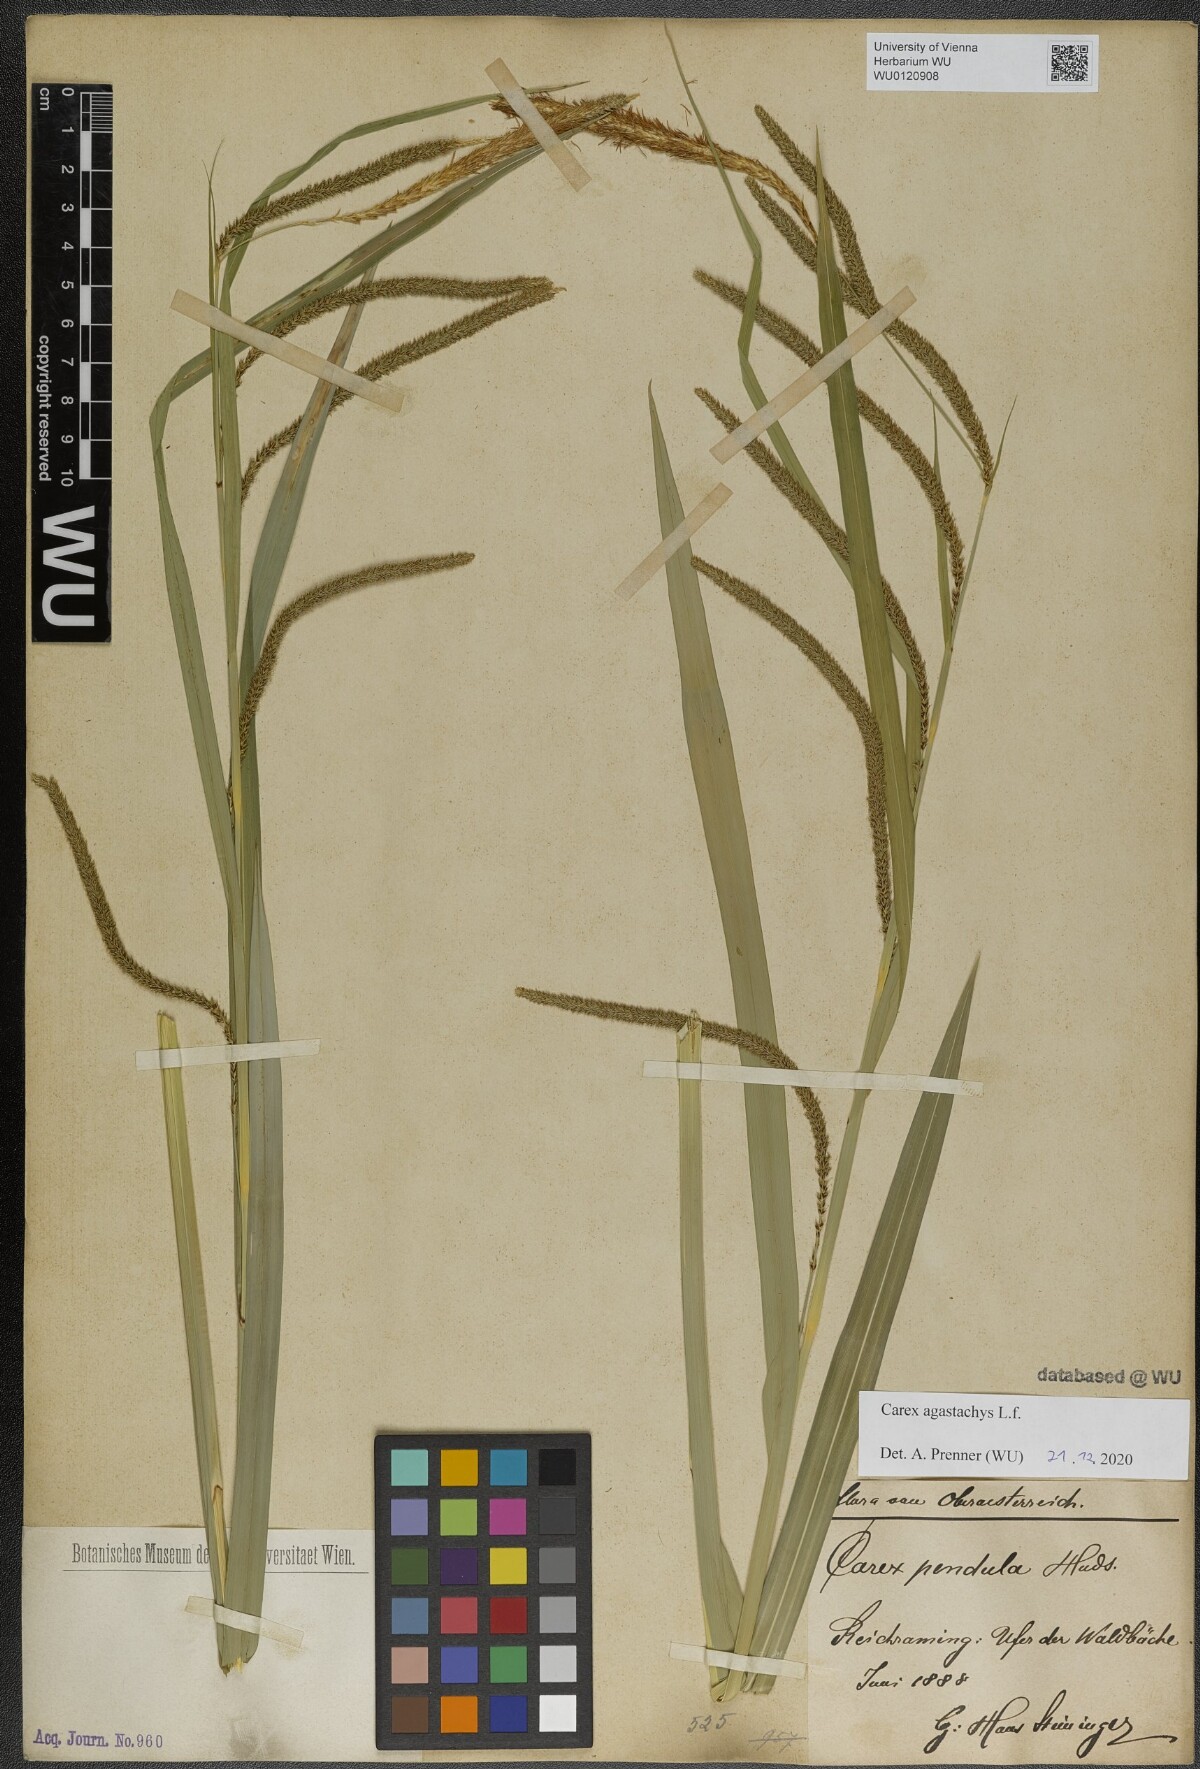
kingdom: Plantae
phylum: Tracheophyta
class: Liliopsida
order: Poales
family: Cyperaceae
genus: Carex
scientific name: Carex agastachys
